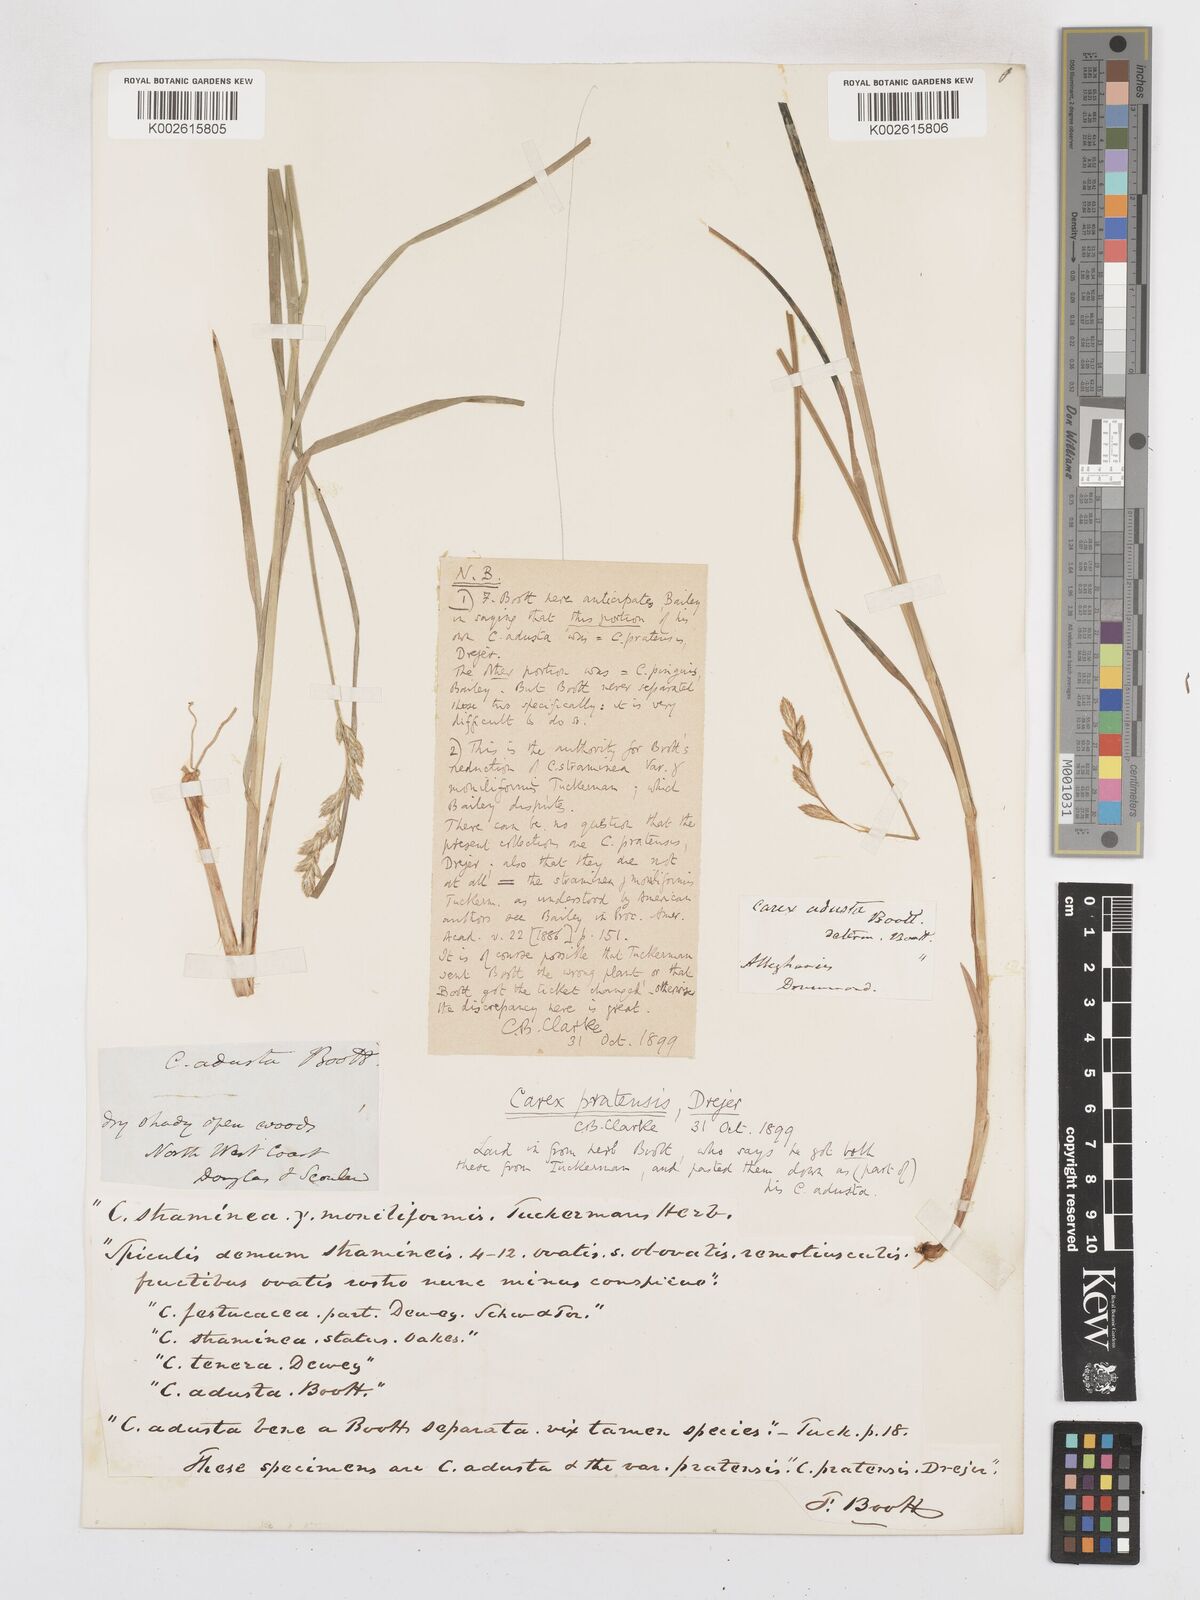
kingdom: Plantae
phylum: Tracheophyta
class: Liliopsida
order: Poales
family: Cyperaceae
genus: Carex
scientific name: Carex praticola
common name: Large-fruited oval sedge
